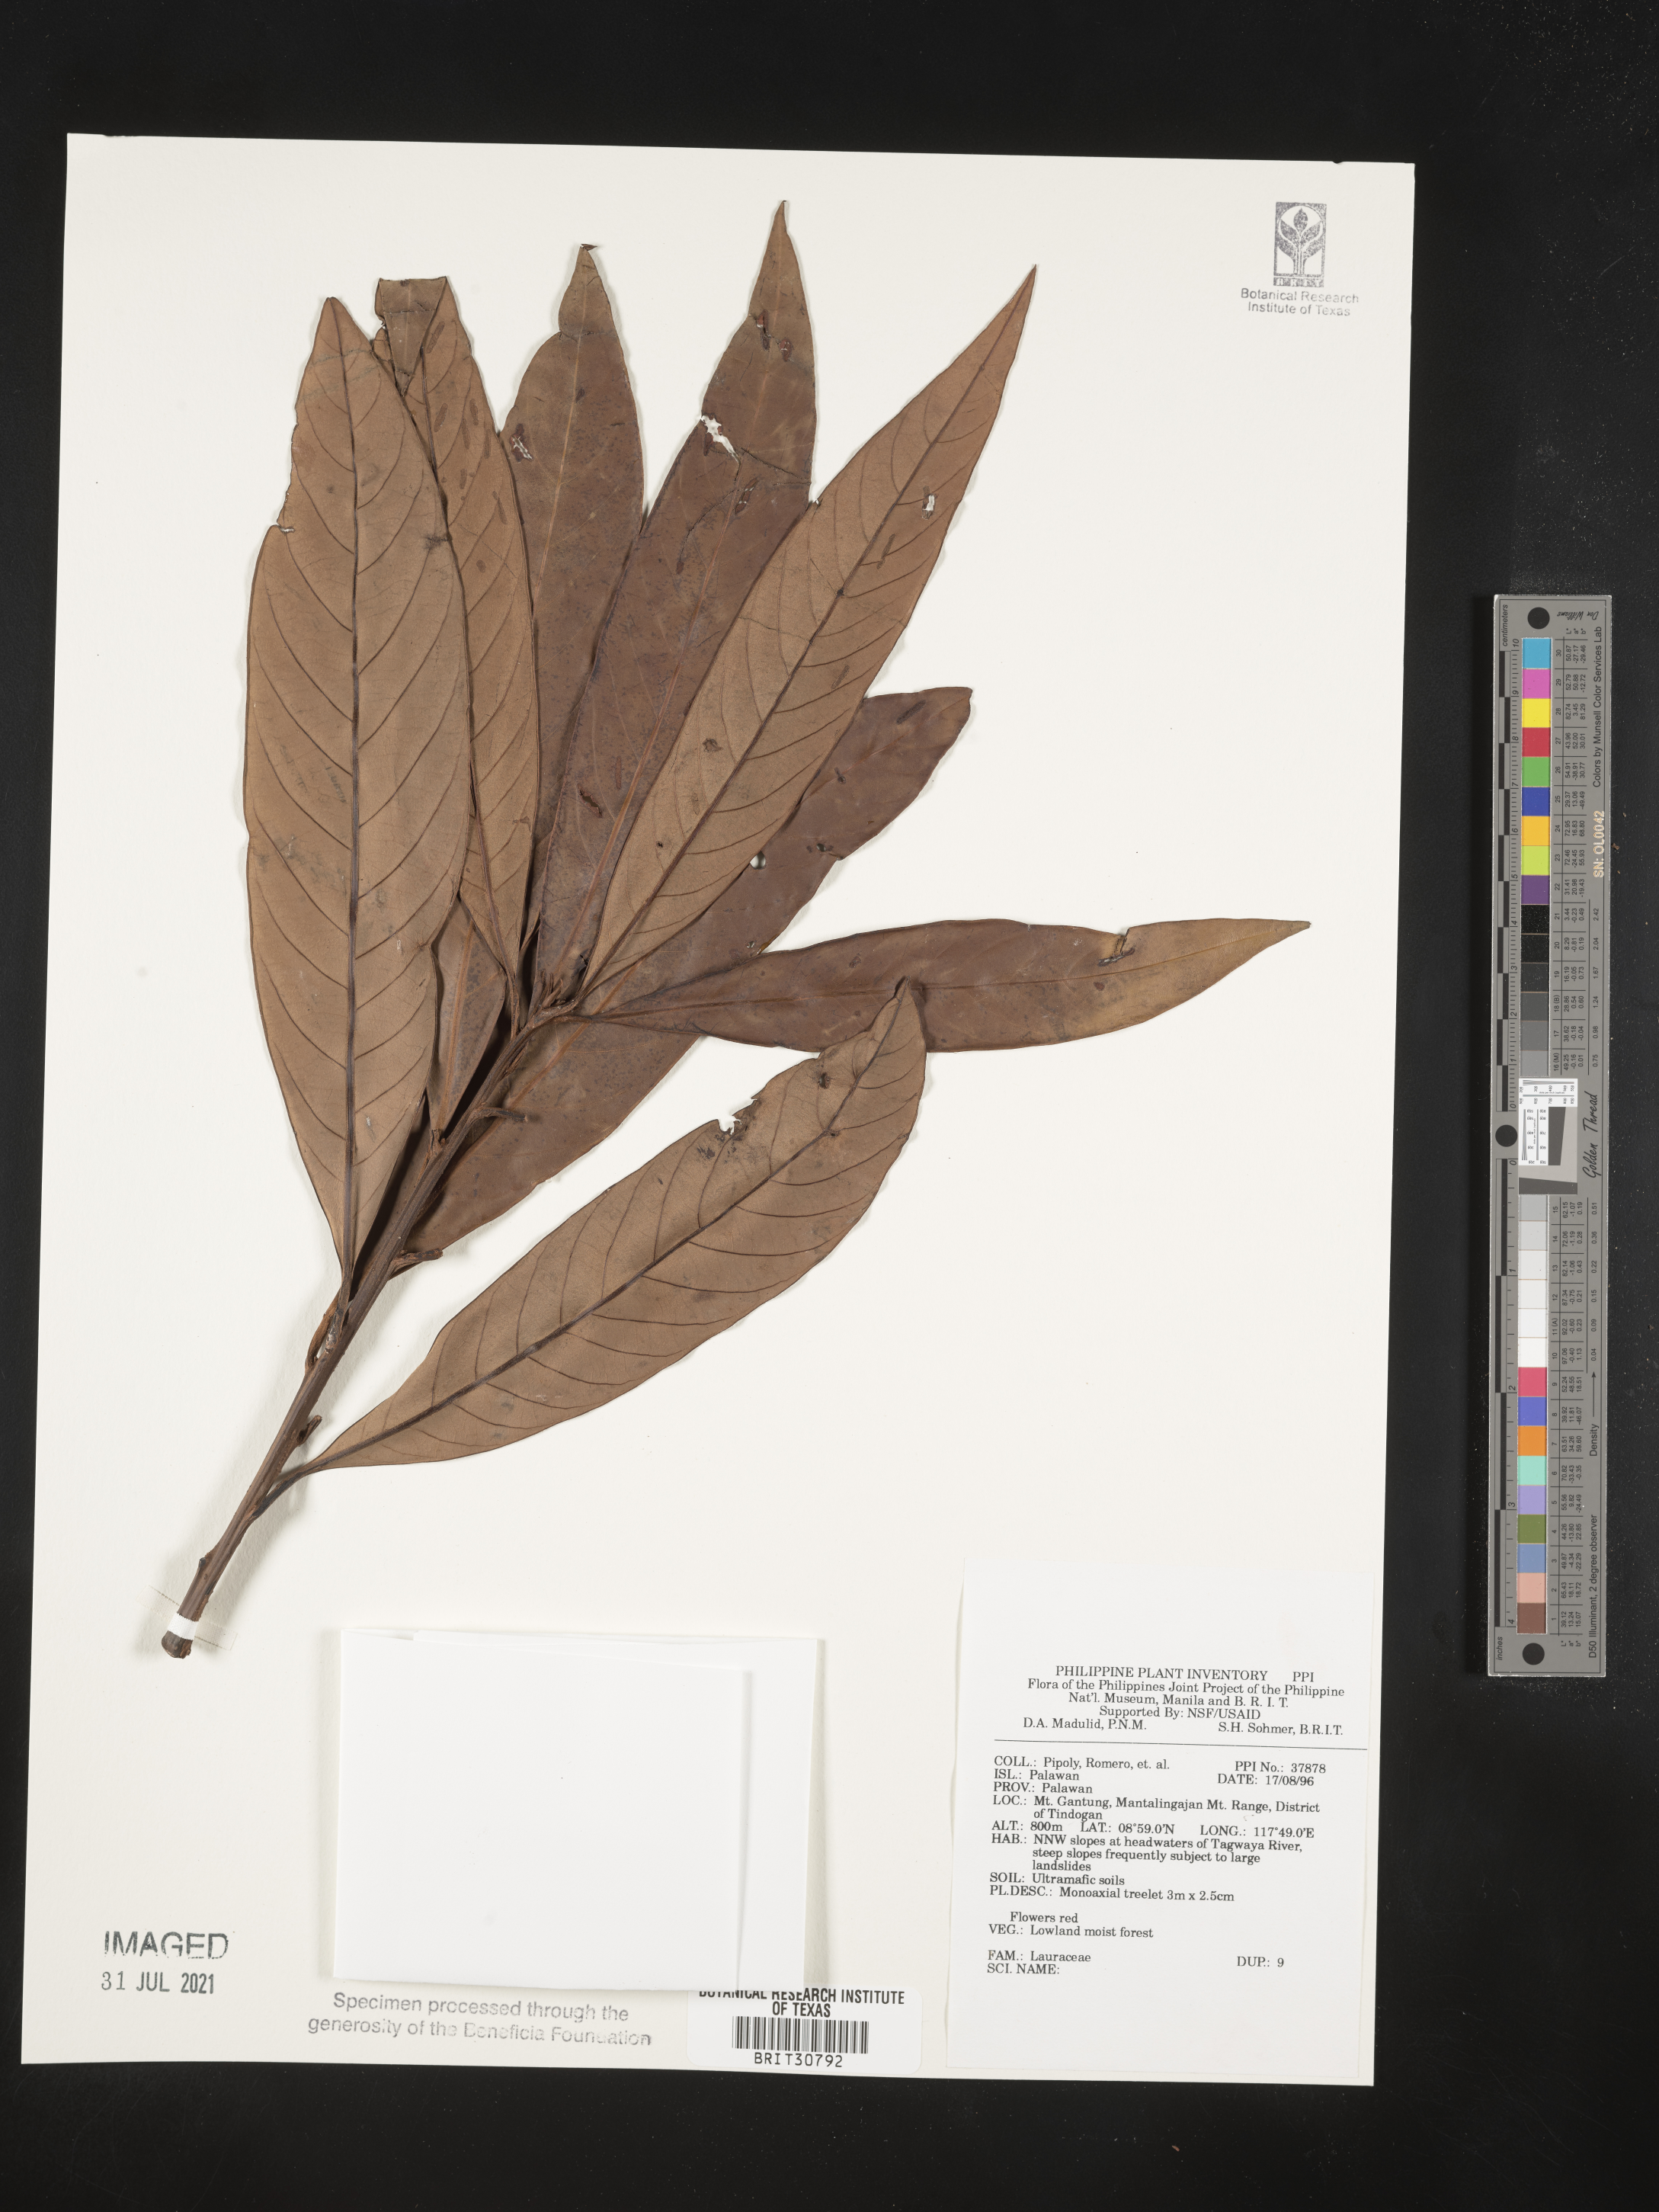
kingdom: Plantae
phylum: Tracheophyta
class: Magnoliopsida
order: Laurales
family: Lauraceae
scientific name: Lauraceae
